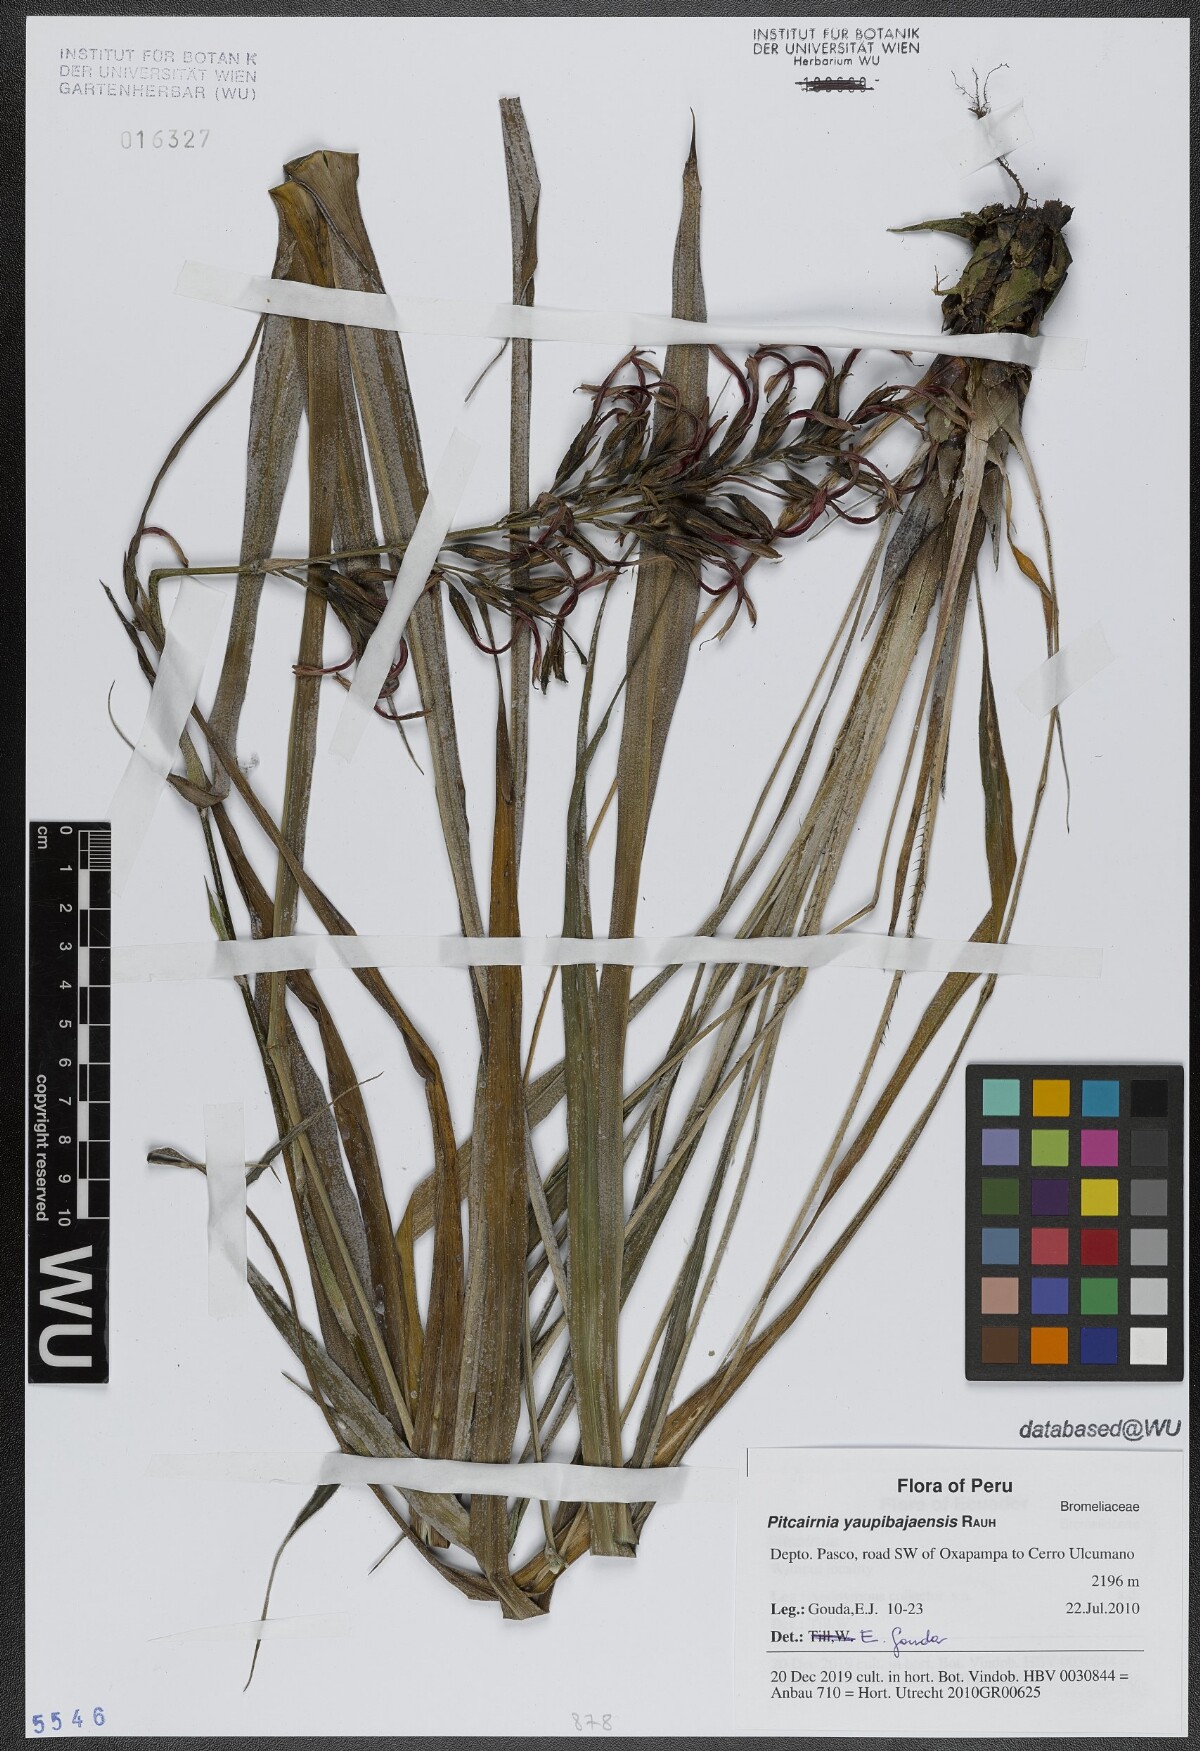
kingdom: Plantae
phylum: Tracheophyta
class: Liliopsida
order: Poales
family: Bromeliaceae
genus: Pitcairnia
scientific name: Pitcairnia yaupi-bajaensis
